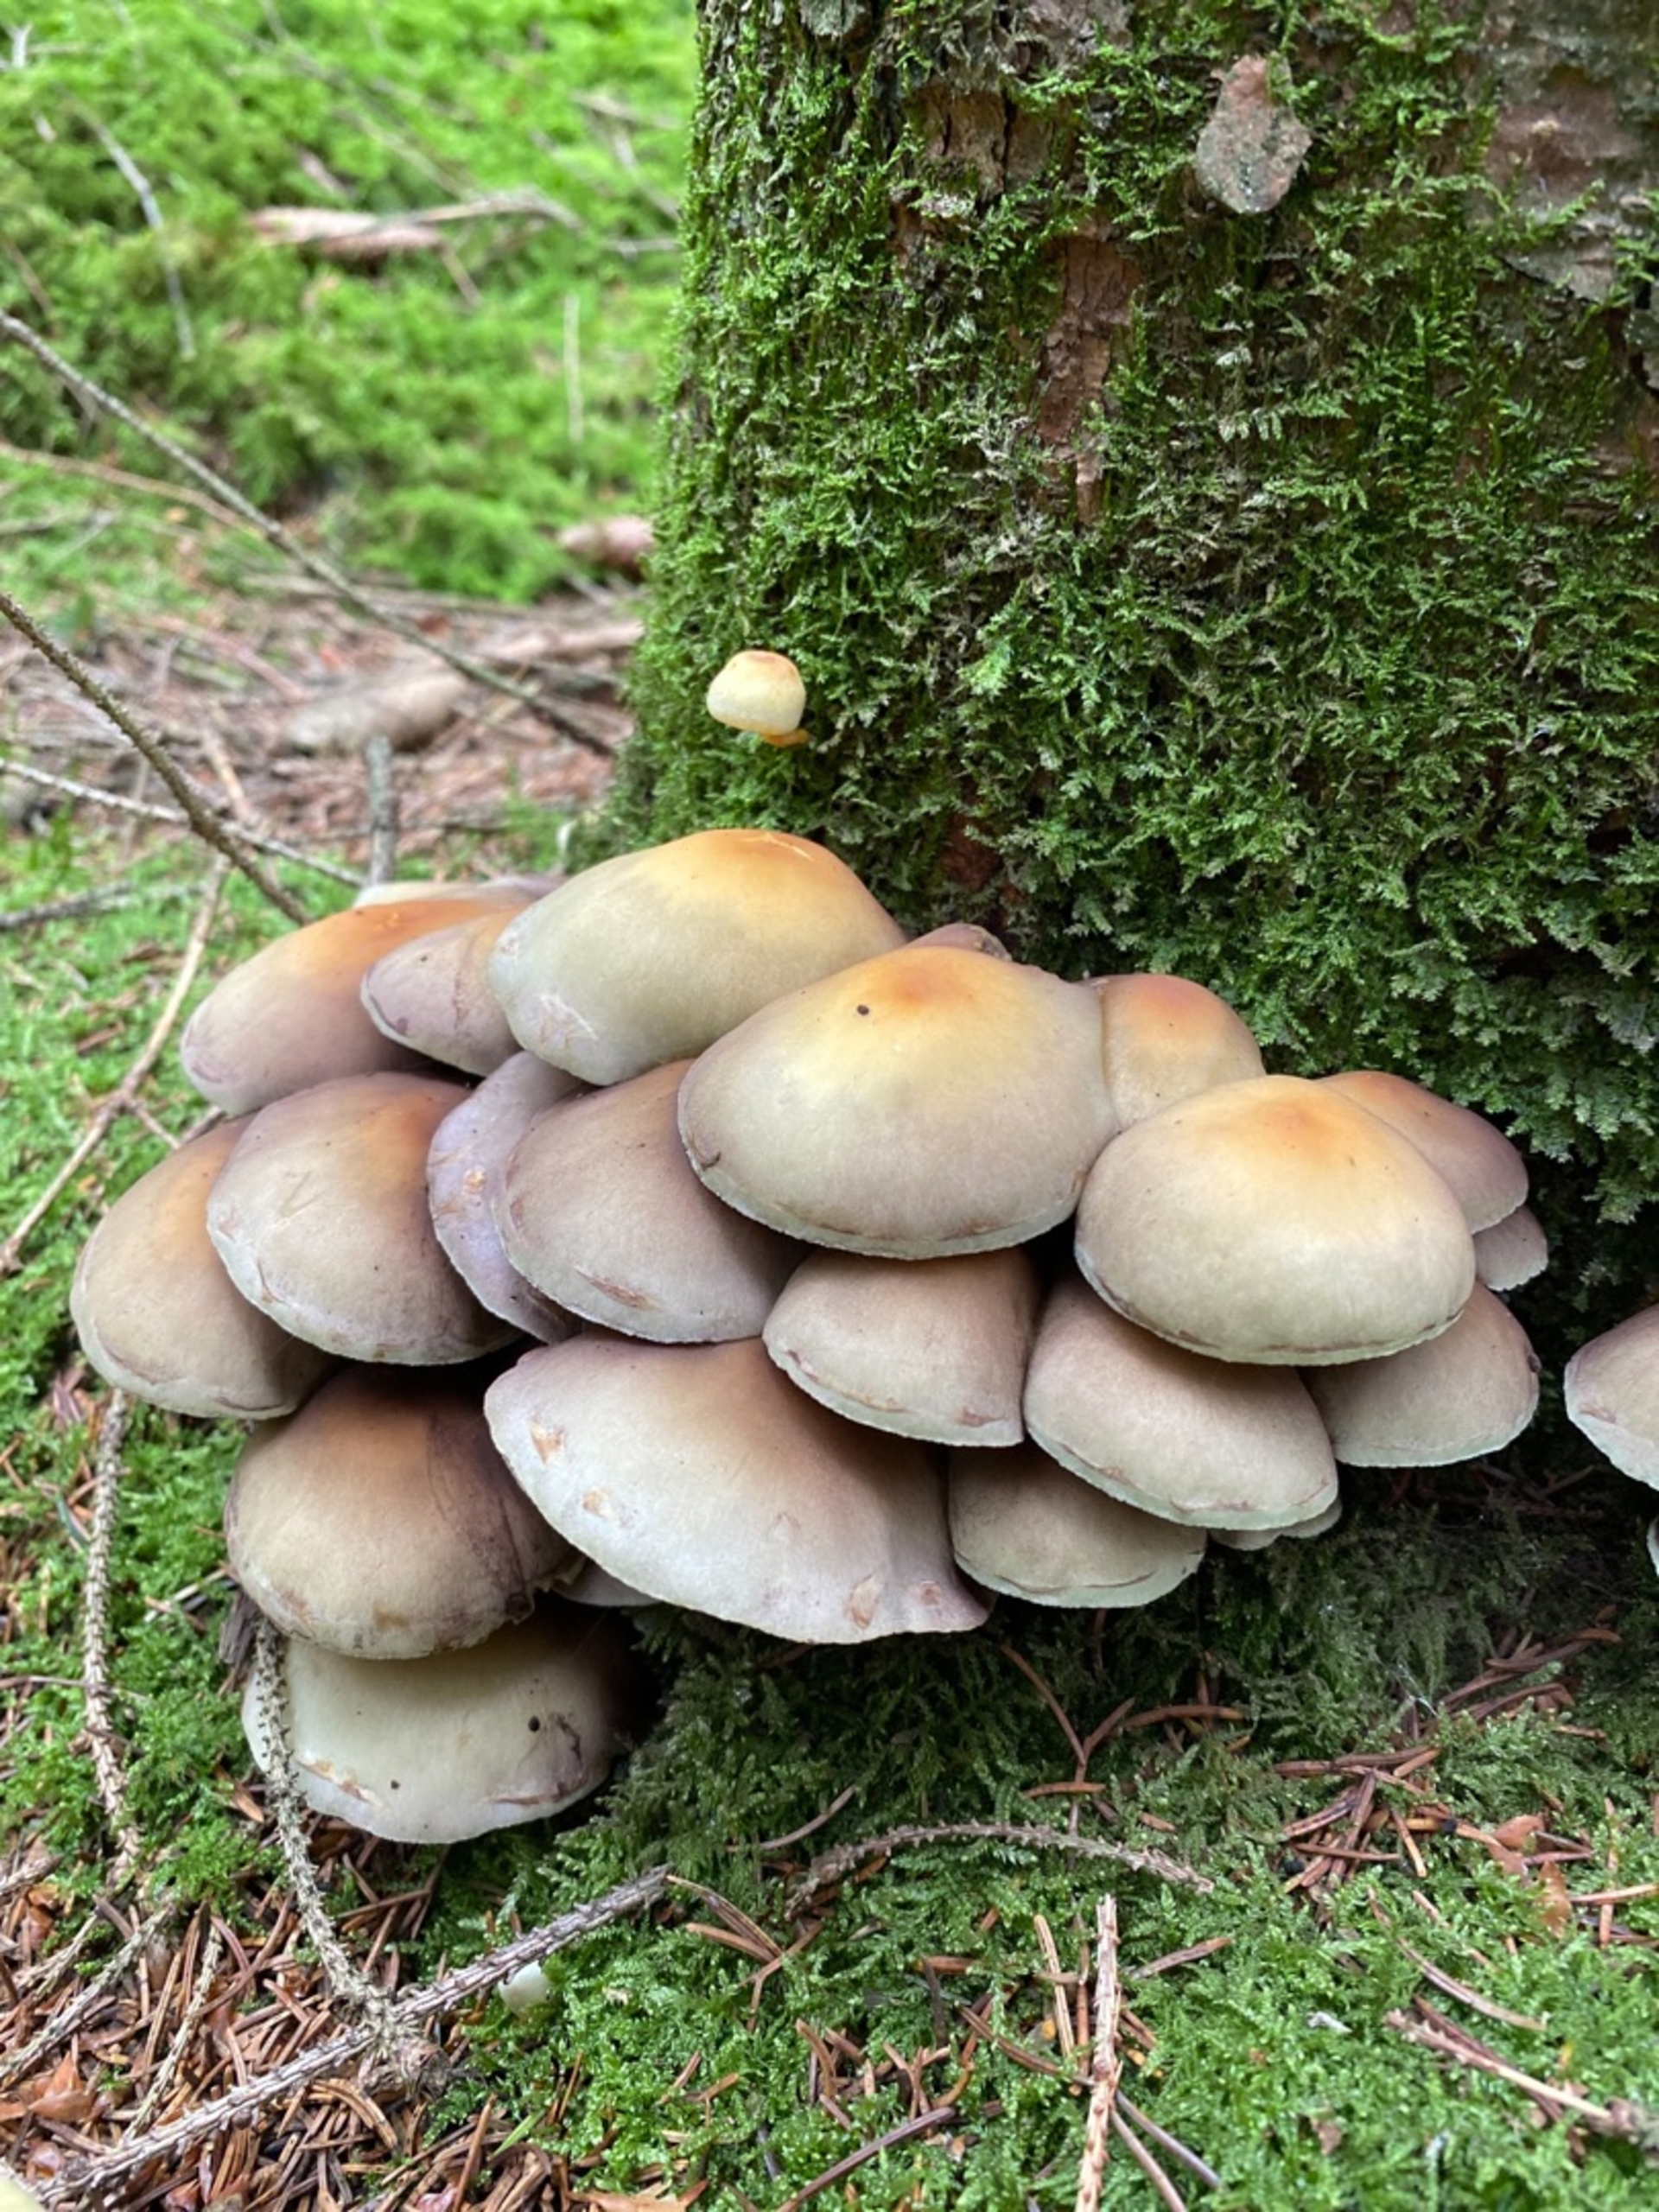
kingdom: Fungi
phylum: Basidiomycota
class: Agaricomycetes
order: Agaricales
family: Strophariaceae
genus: Hypholoma
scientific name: Hypholoma fasciculare
